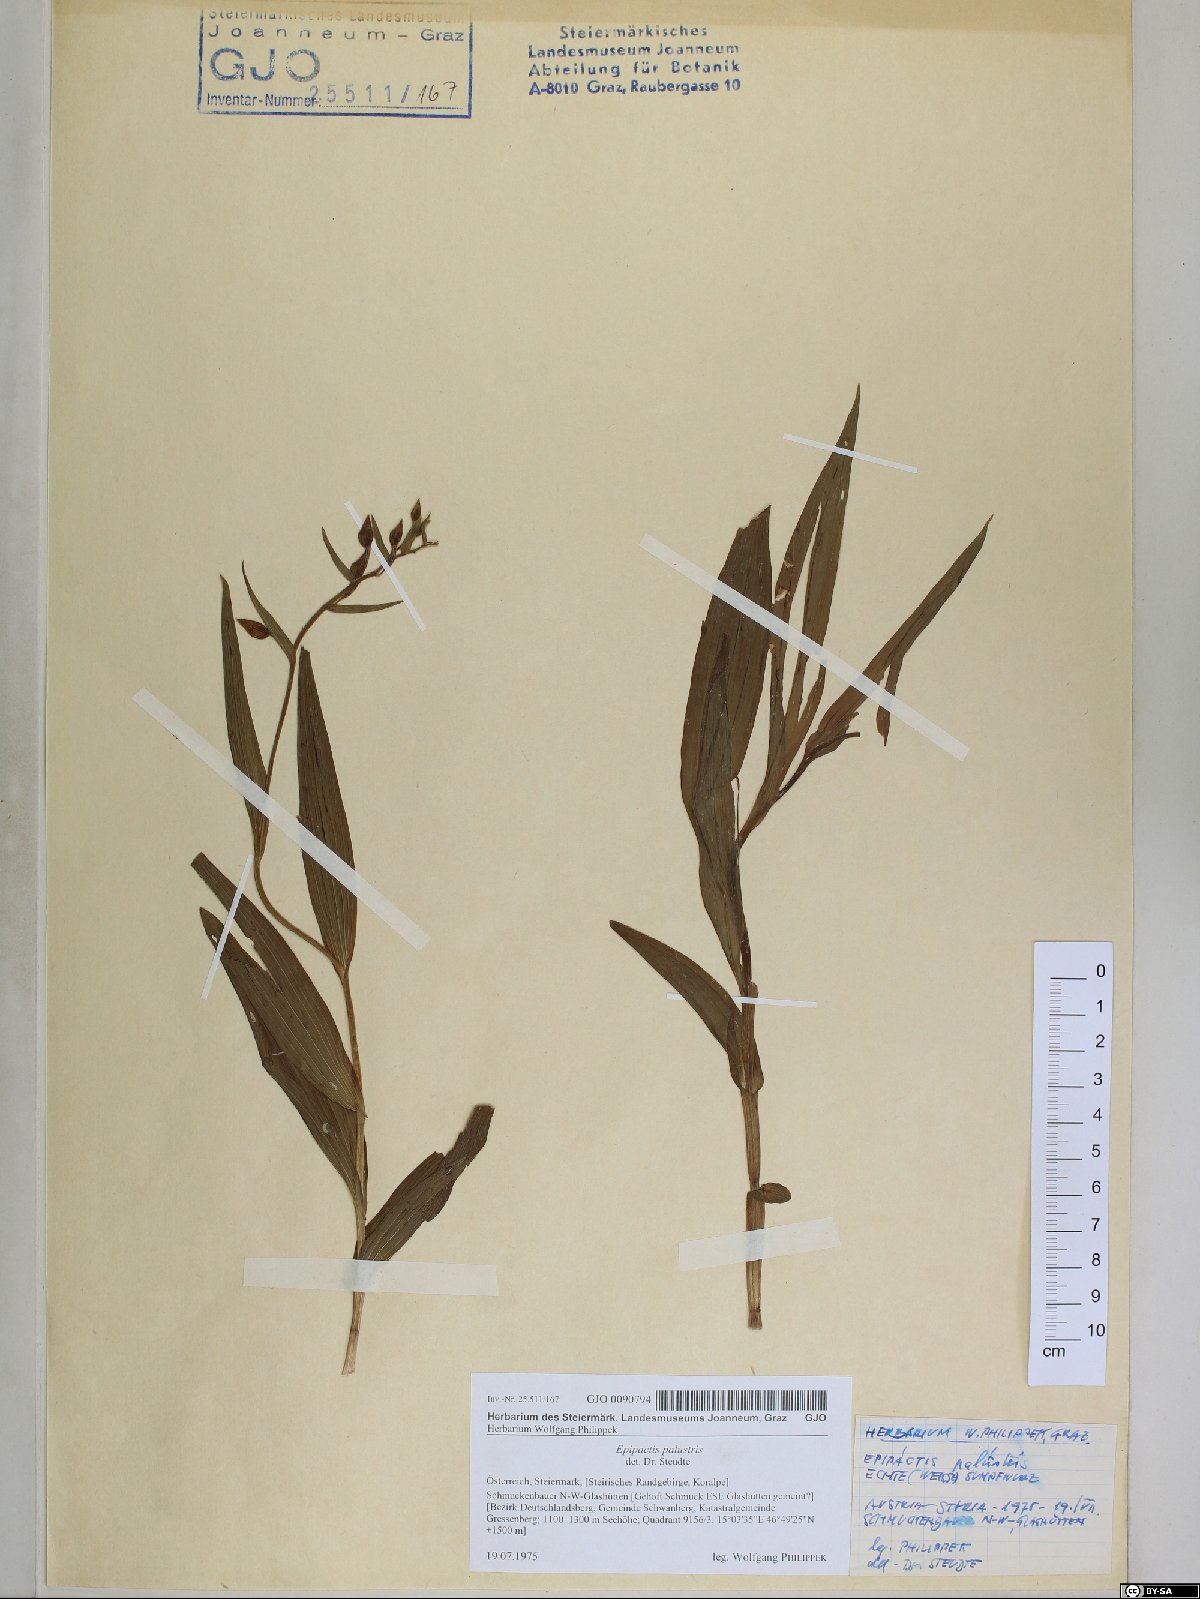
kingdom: Plantae
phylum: Tracheophyta
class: Liliopsida
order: Asparagales
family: Orchidaceae
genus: Epipactis
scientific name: Epipactis palustris
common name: Marsh helleborine
